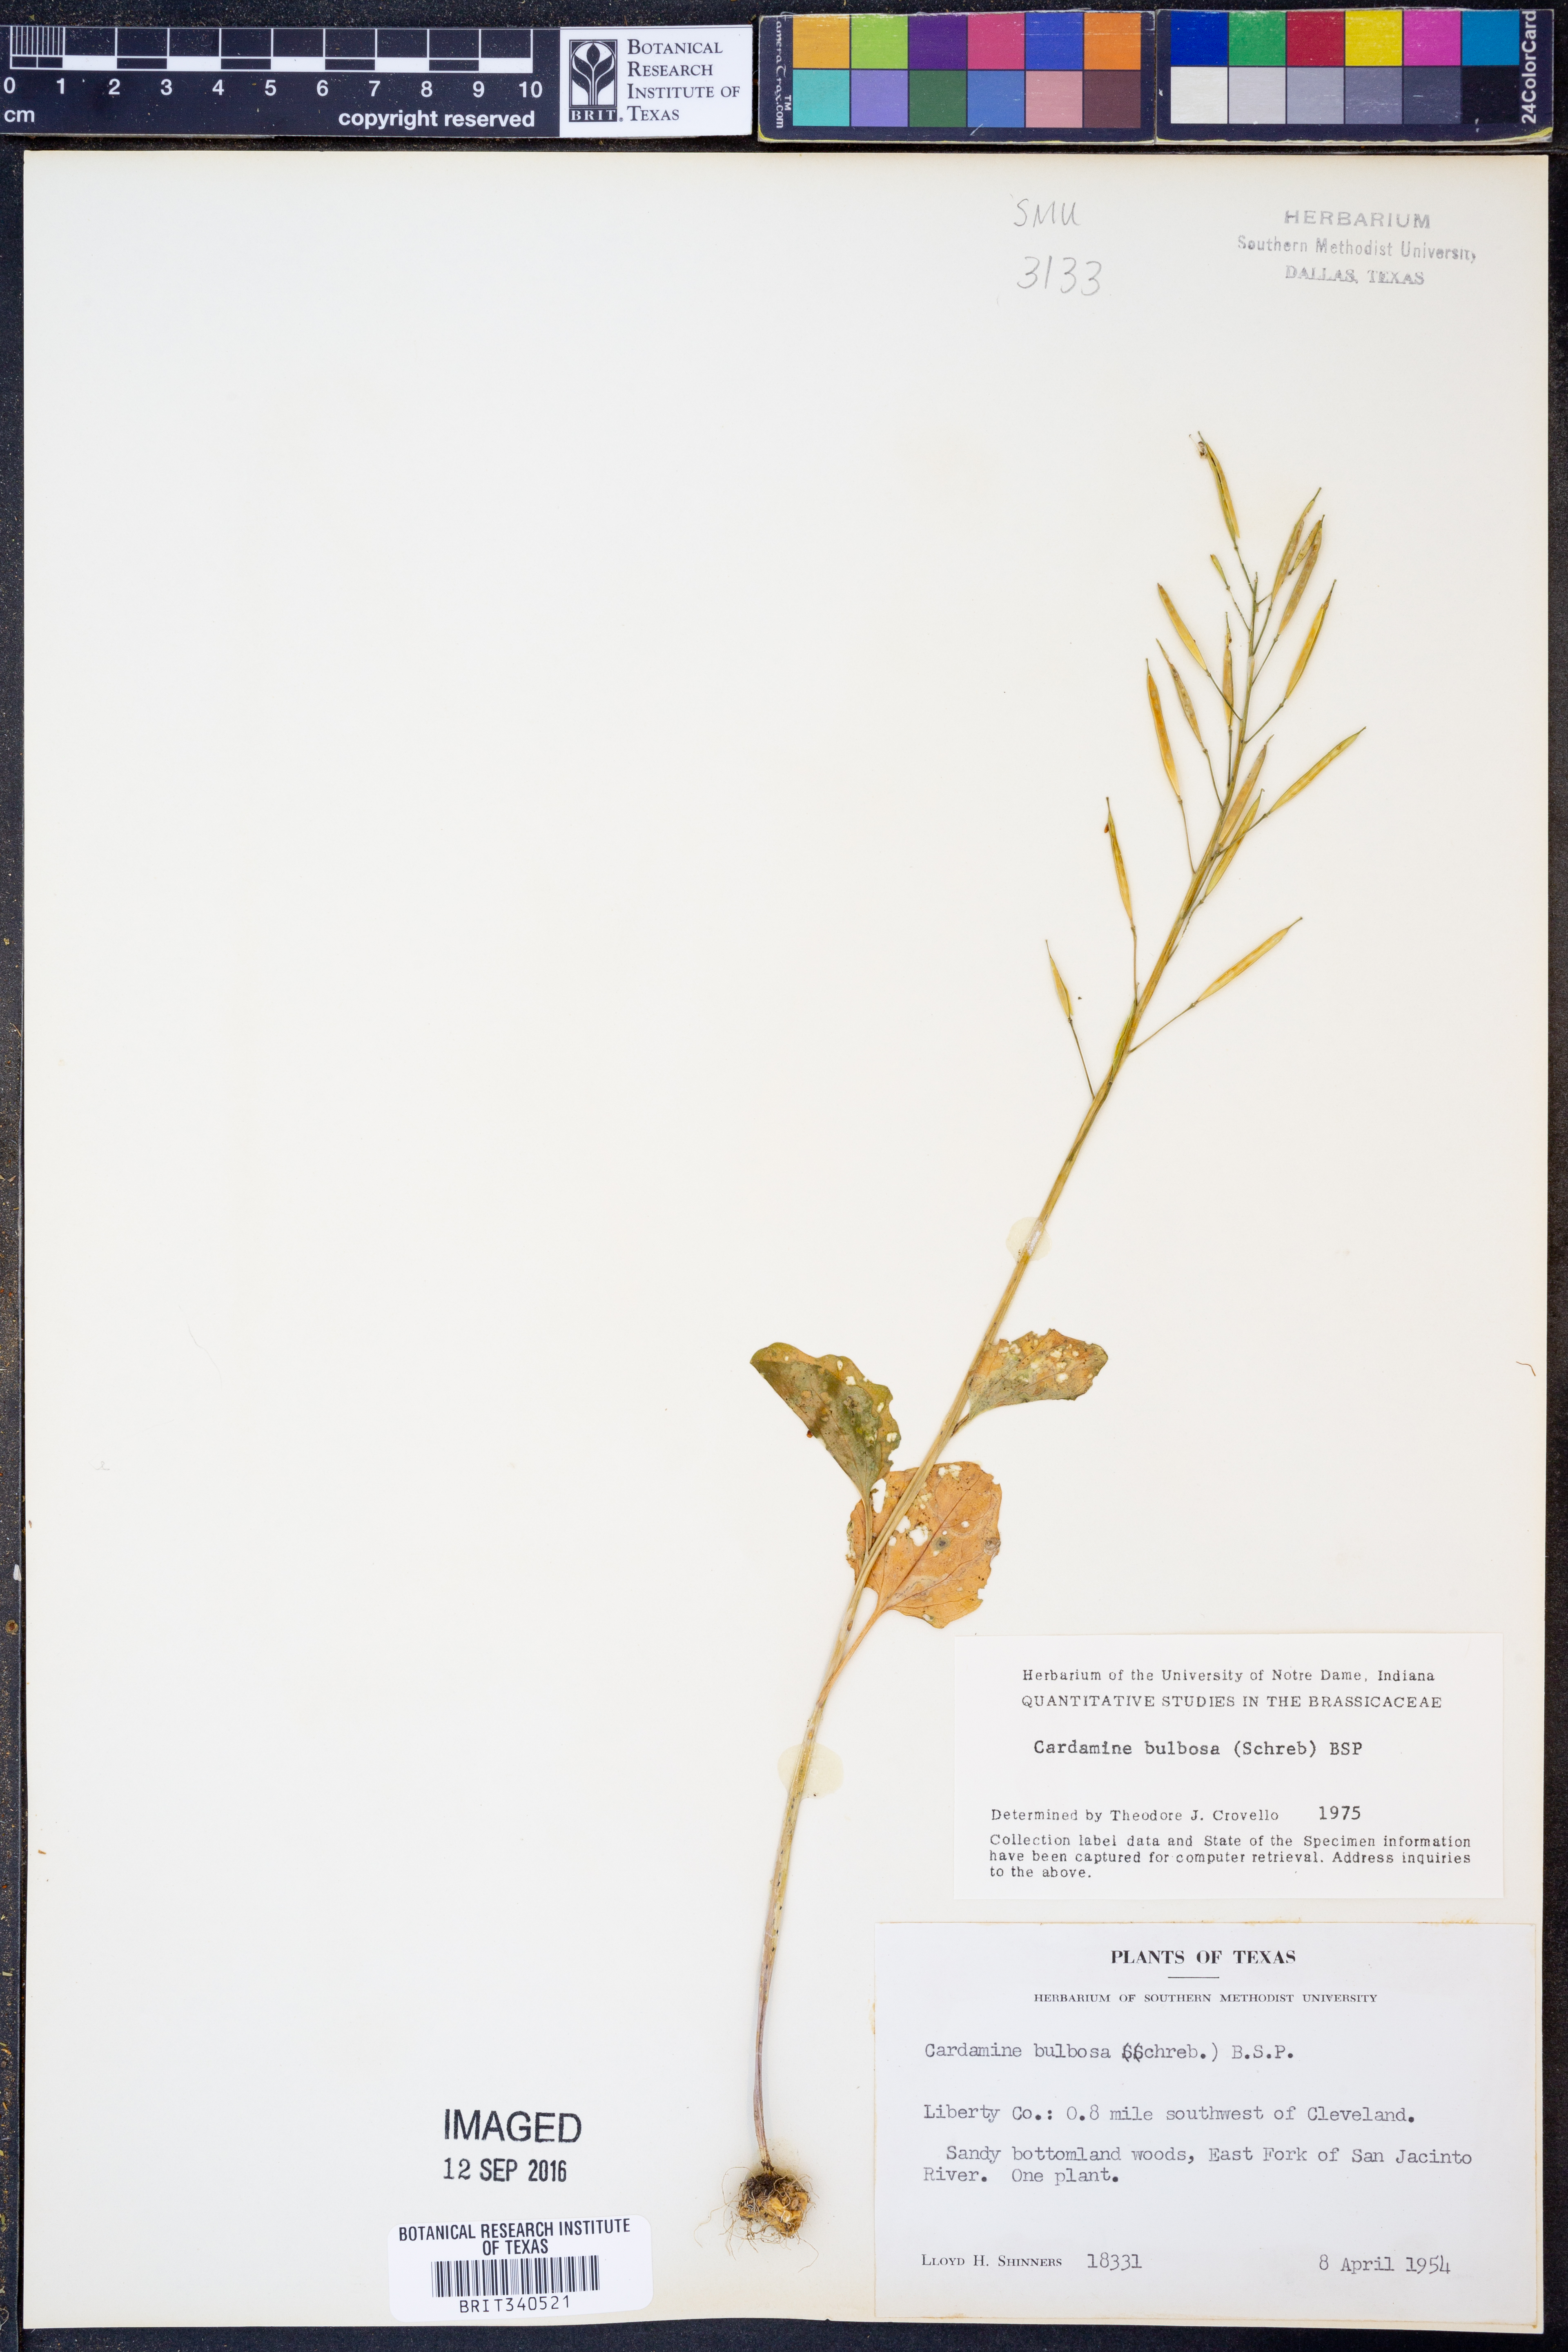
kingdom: Plantae
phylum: Tracheophyta
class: Magnoliopsida
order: Brassicales
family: Brassicaceae
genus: Cardamine
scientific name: Cardamine bulbosa
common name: Spring cress
